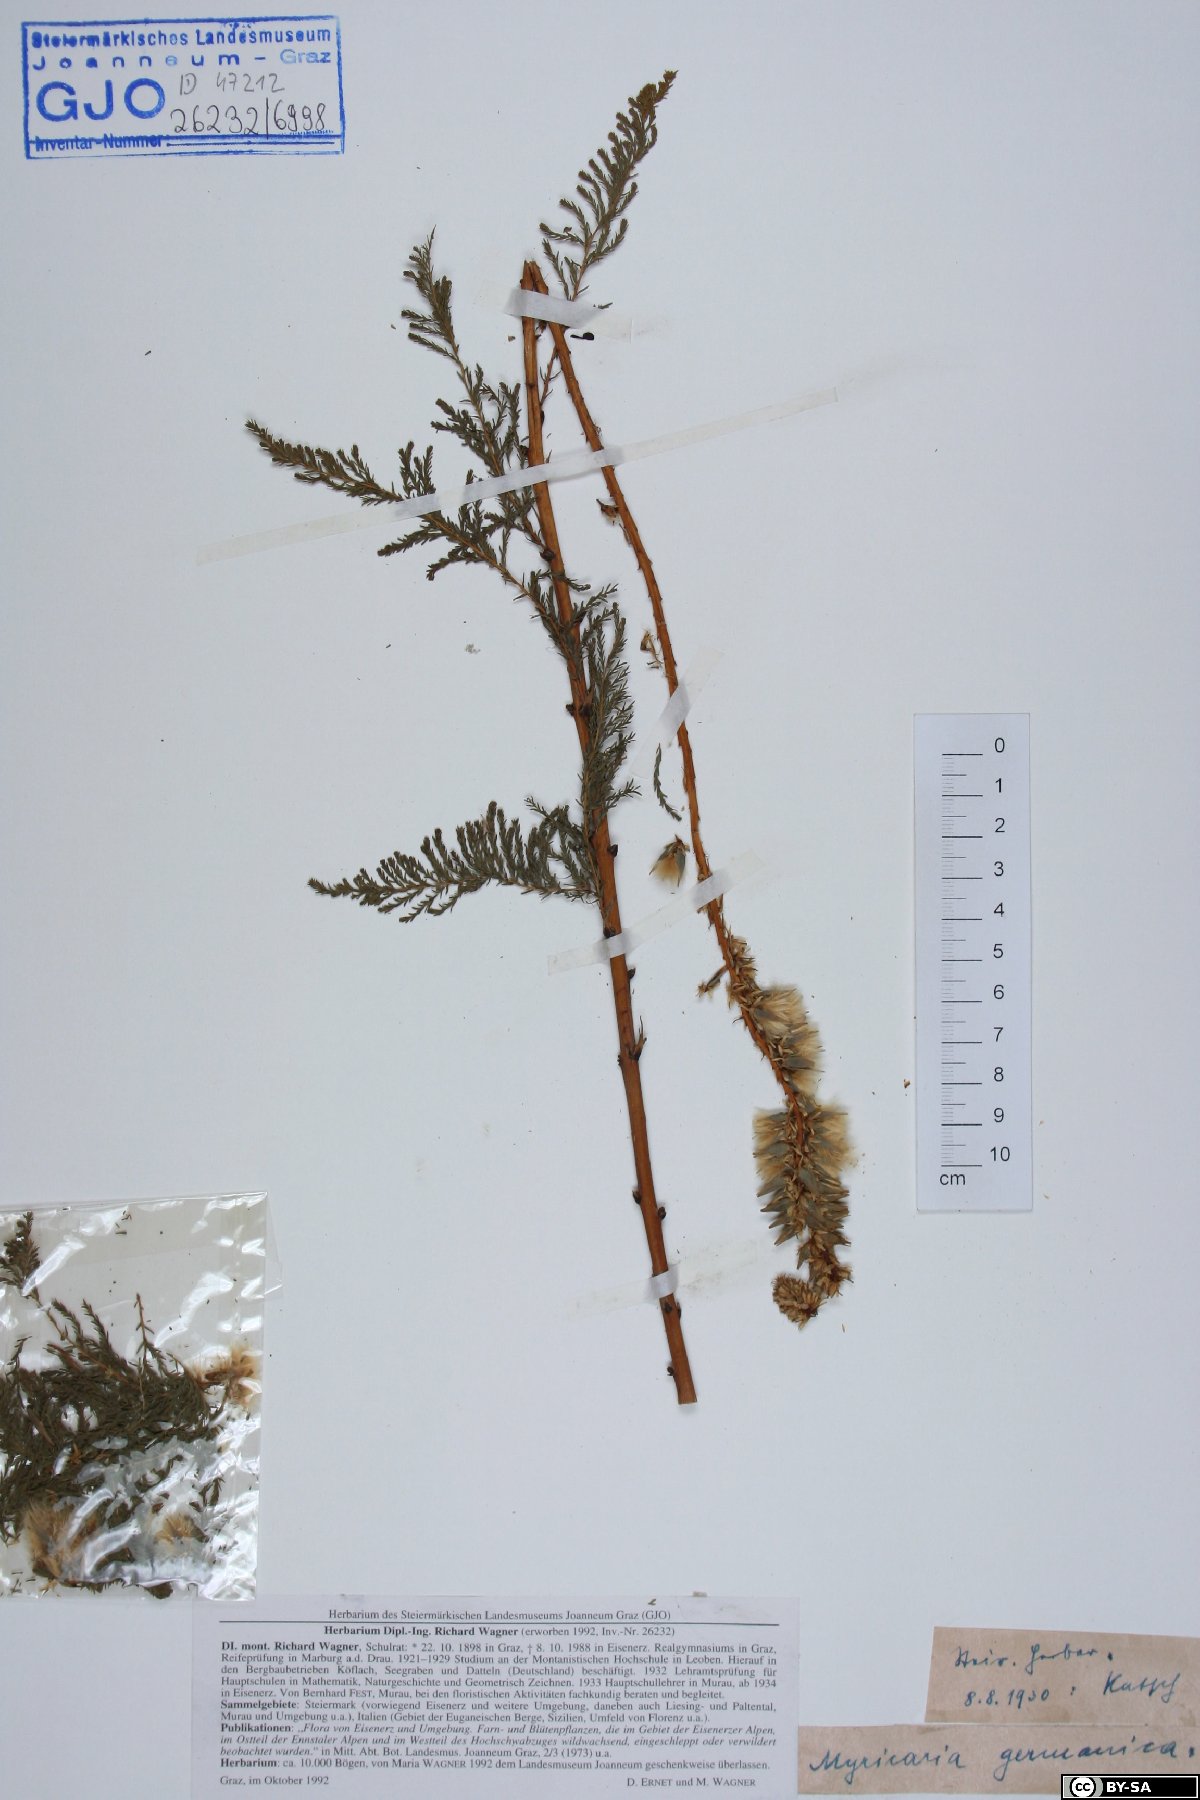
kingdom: Plantae
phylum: Tracheophyta
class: Magnoliopsida
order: Caryophyllales
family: Tamaricaceae
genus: Myricaria
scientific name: Myricaria germanica
